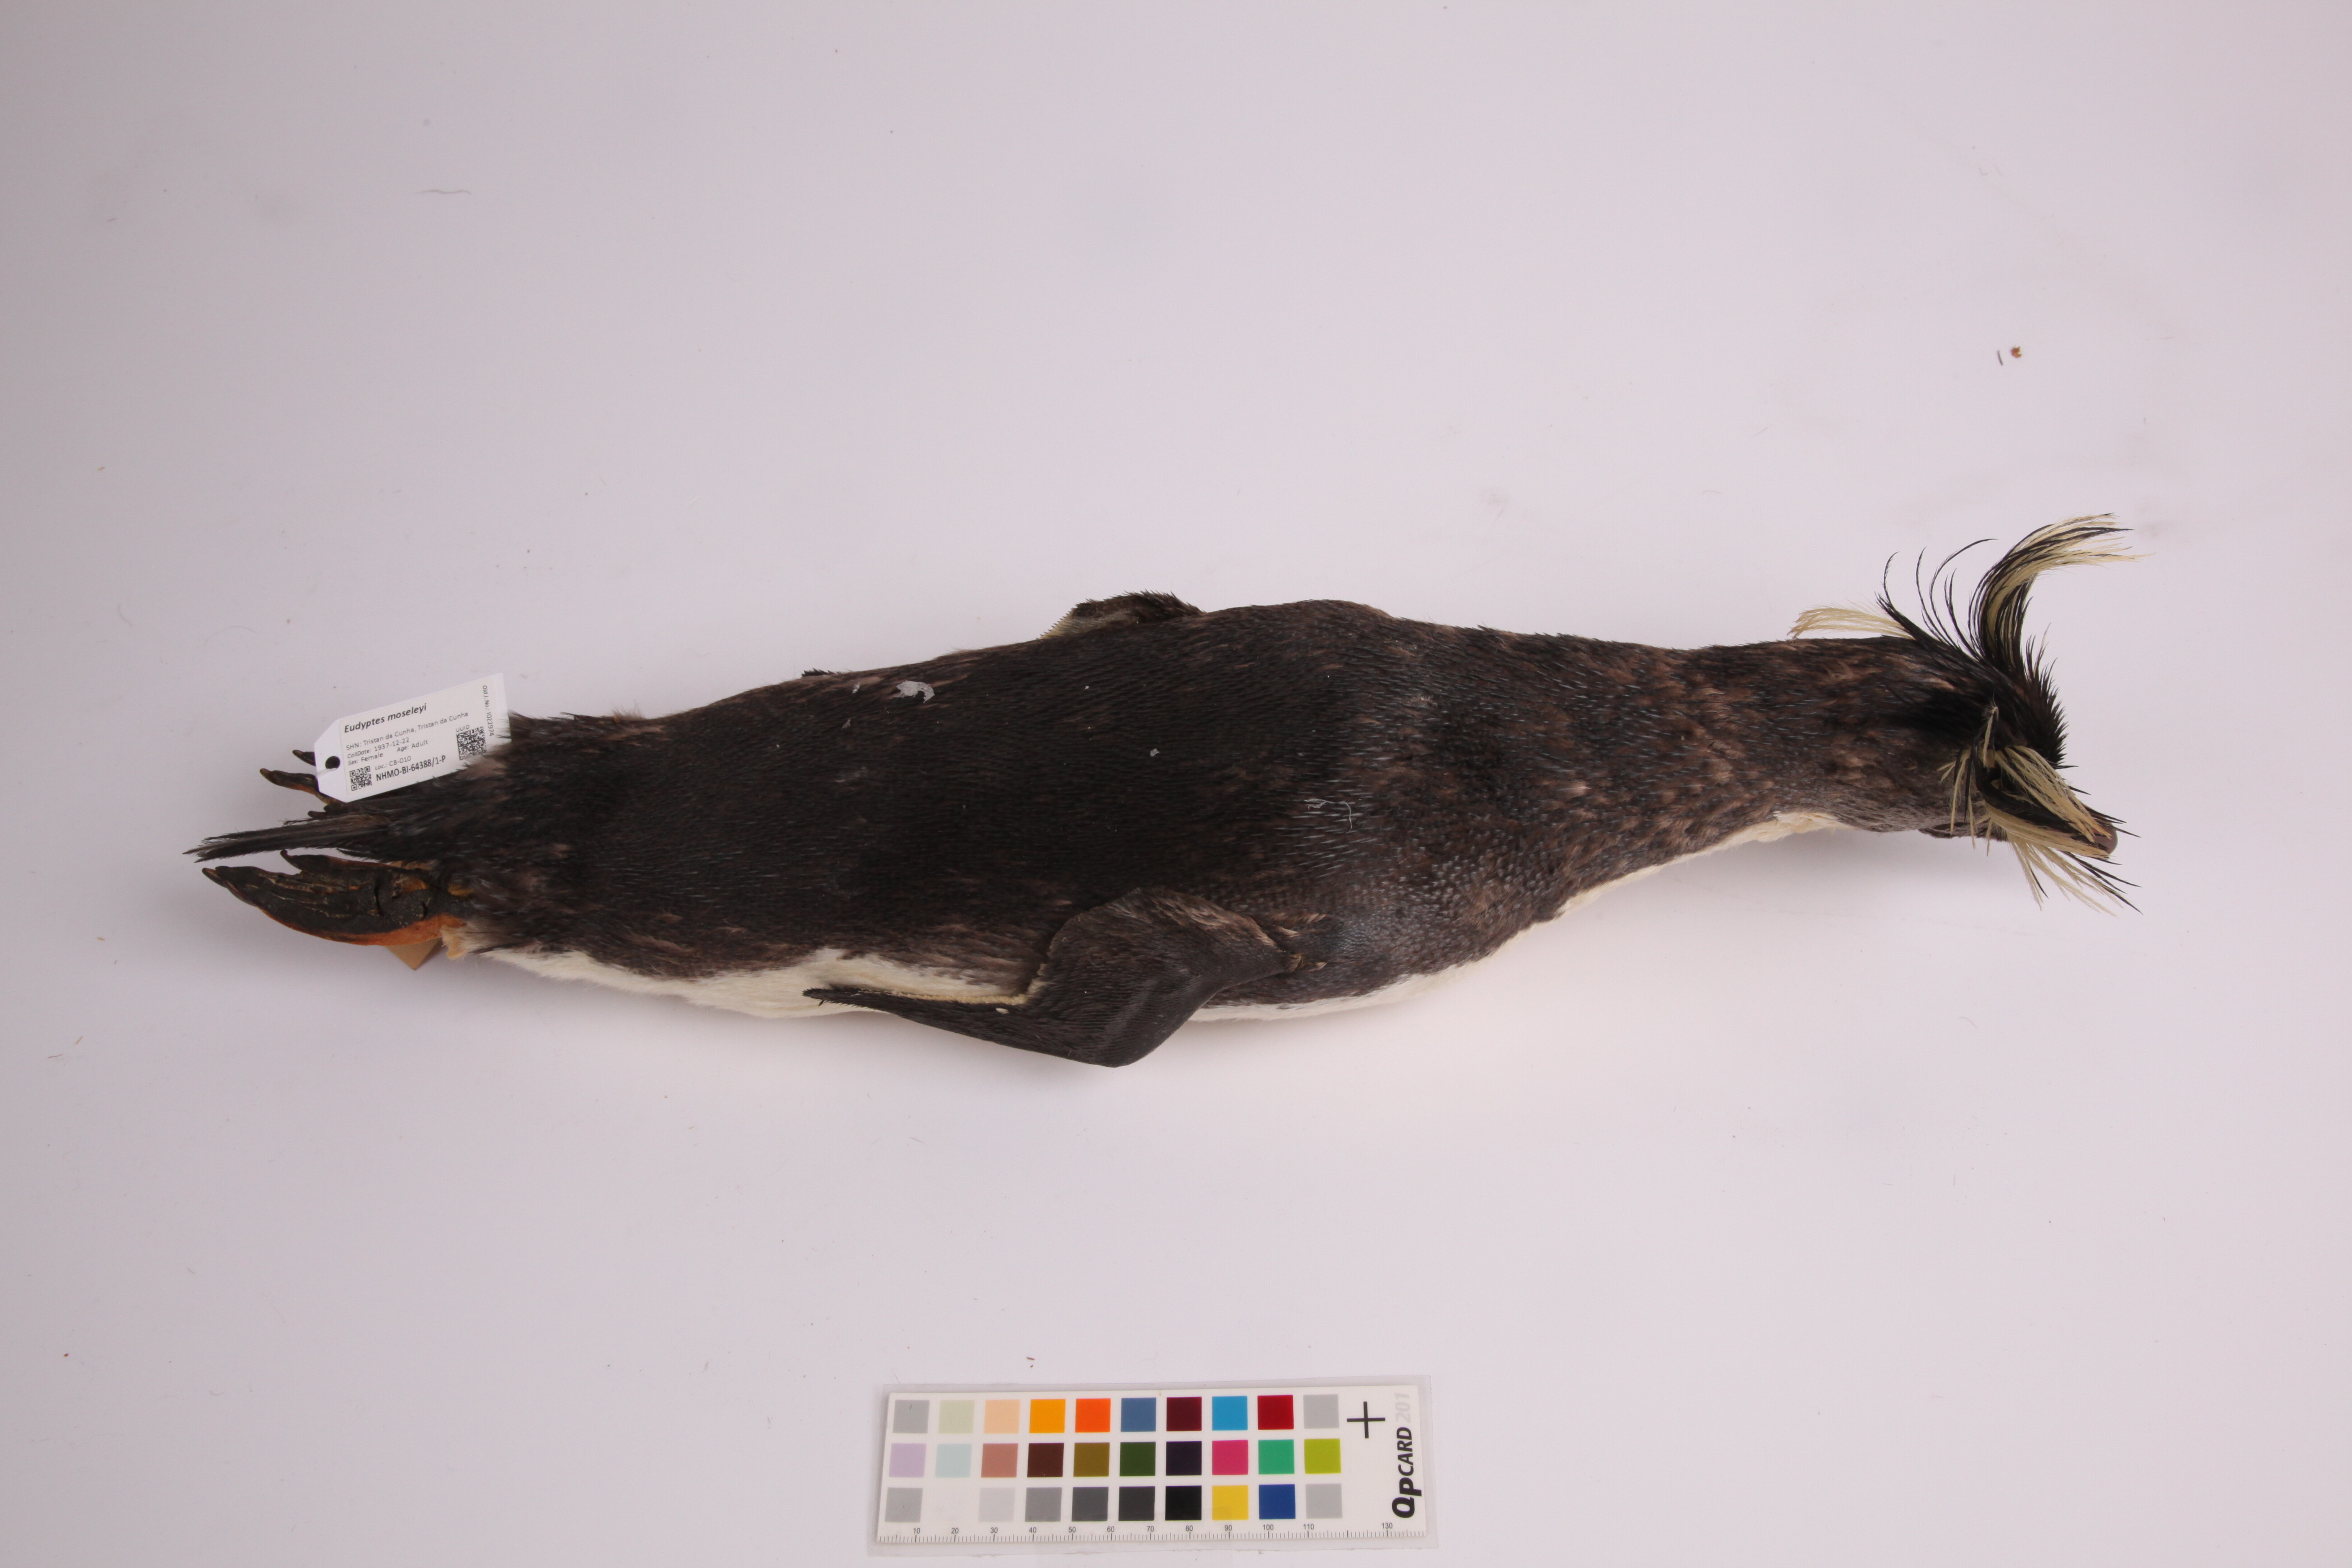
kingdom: Animalia
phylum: Chordata
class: Aves
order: Sphenisciformes
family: Spheniscidae
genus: Eudyptes
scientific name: Eudyptes moseleyi
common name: Northern rockhopper penguin
